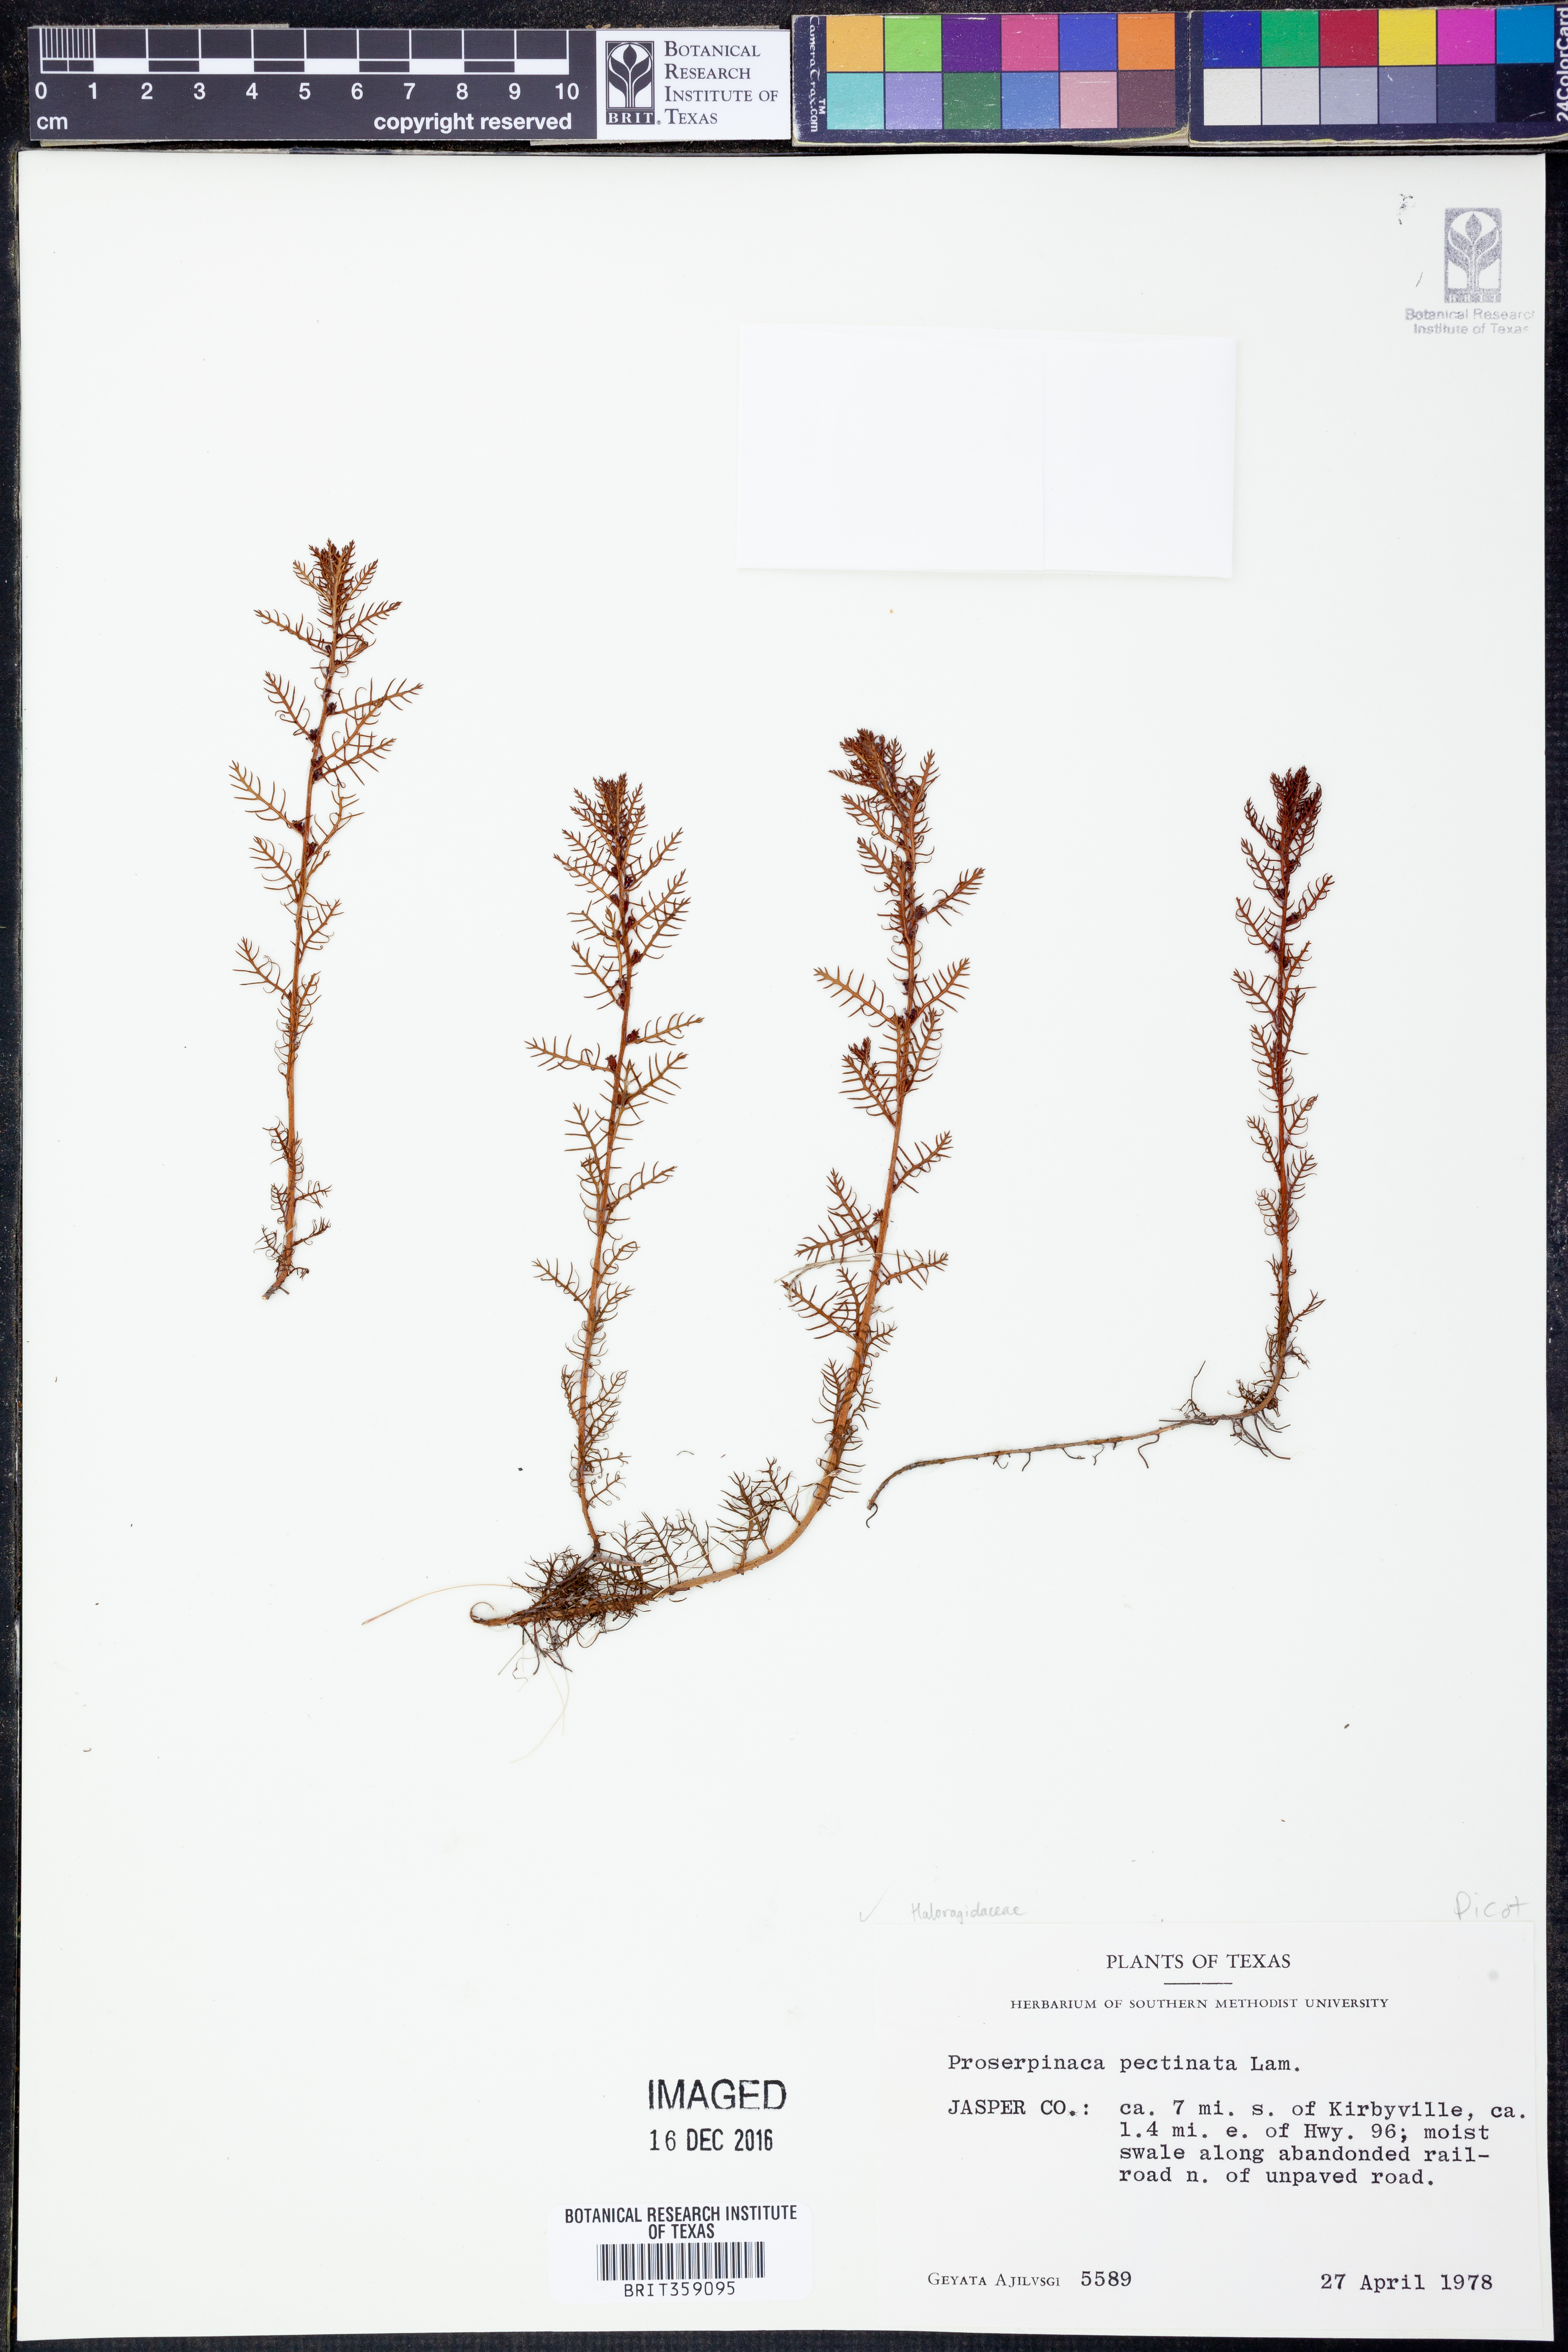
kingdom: Plantae
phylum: Tracheophyta
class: Magnoliopsida
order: Saxifragales
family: Haloragaceae
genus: Proserpinaca
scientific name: Proserpinaca pectinata
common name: Comb-leaved mermaidweed
